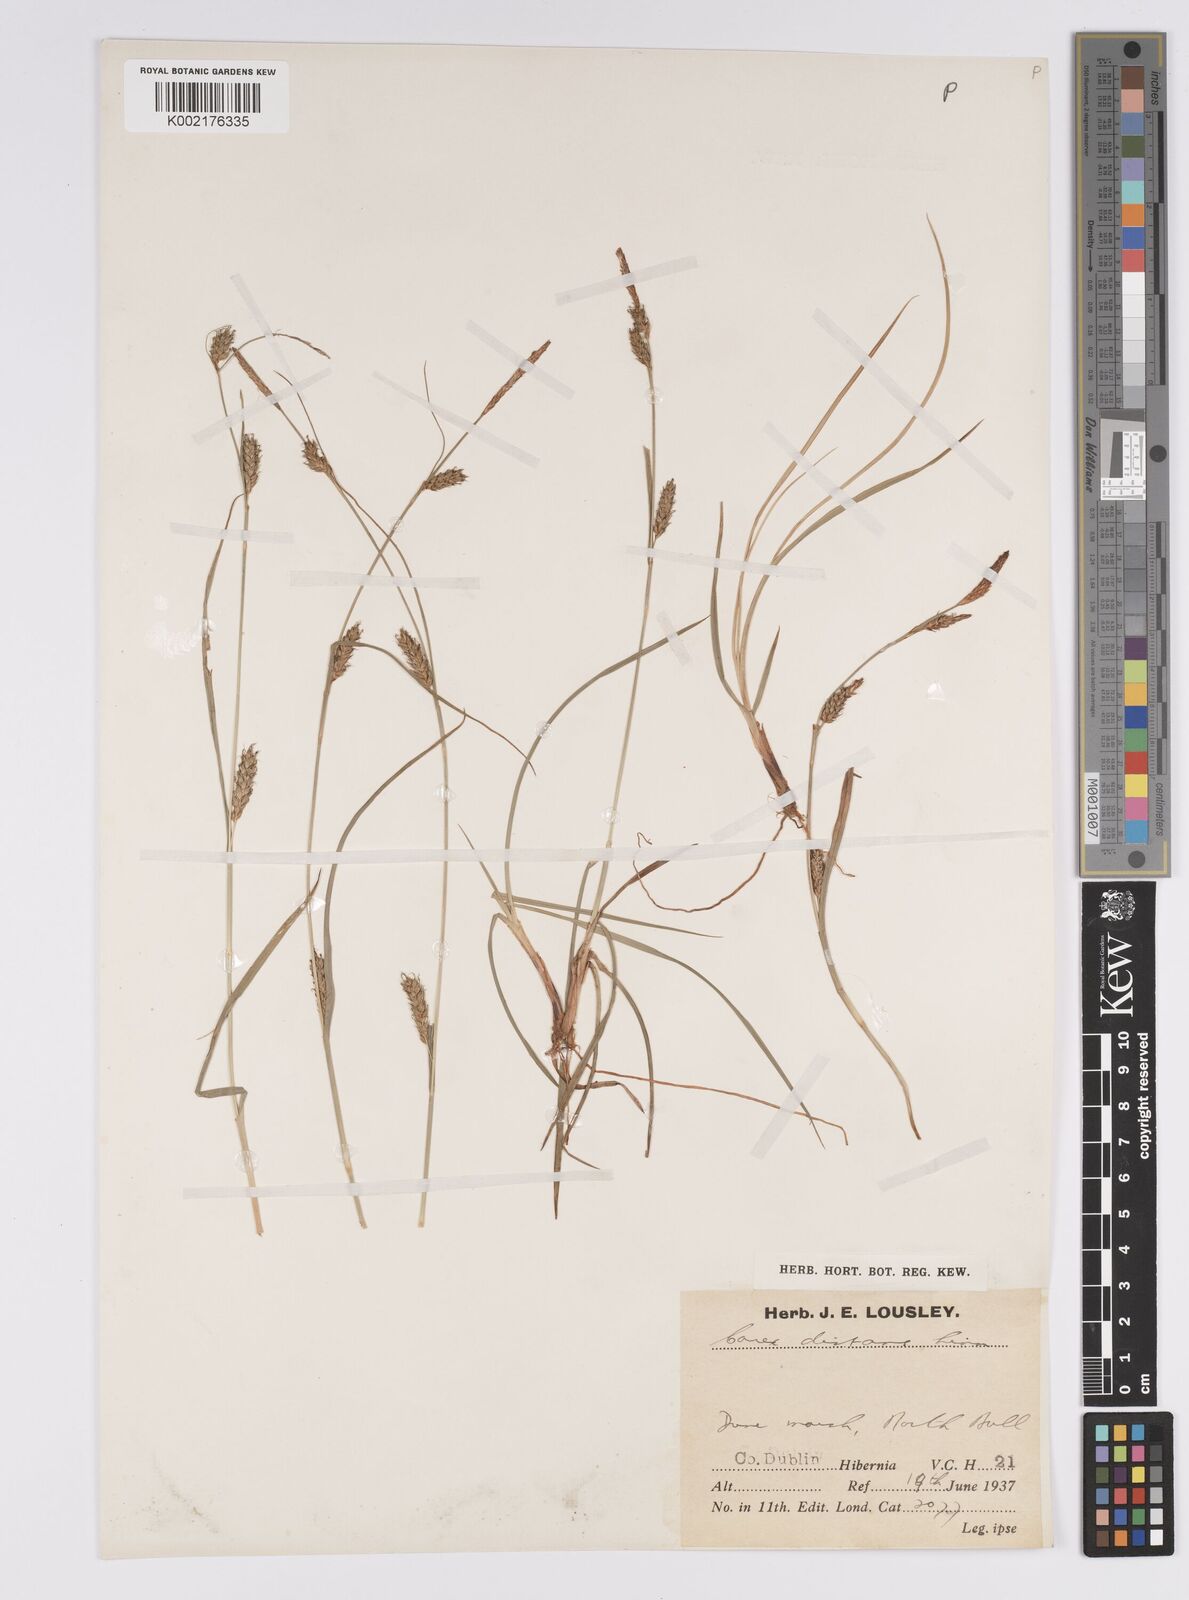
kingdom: Plantae
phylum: Tracheophyta
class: Liliopsida
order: Poales
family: Cyperaceae
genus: Carex
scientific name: Carex distans
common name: Distant sedge
